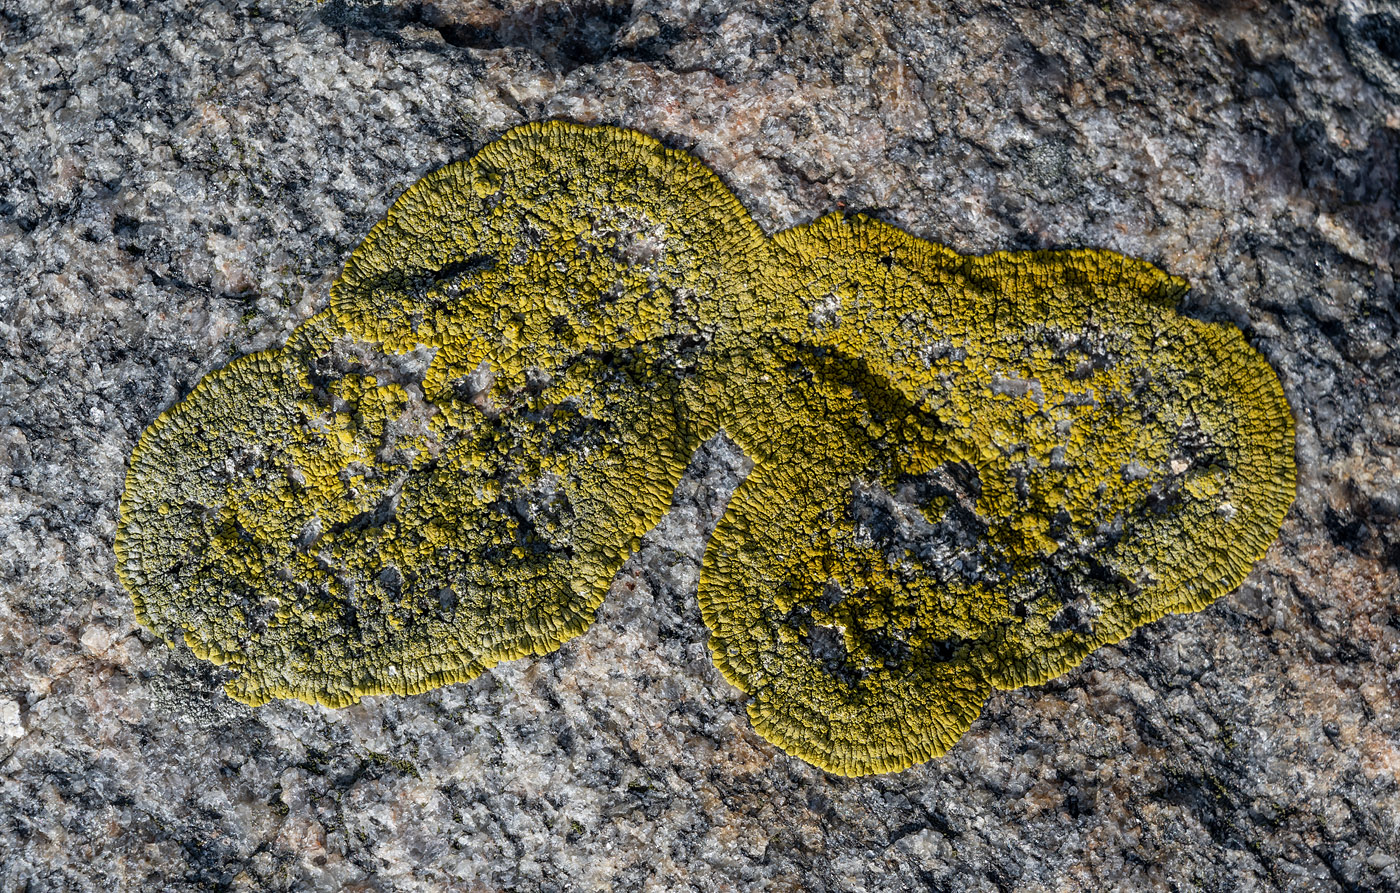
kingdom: Fungi
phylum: Ascomycota
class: Lecanoromycetes
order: Teloschistales
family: Teloschistaceae
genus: Verrucoplaca
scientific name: Verrucoplaca verruculifera
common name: koldkyst-orangelav
